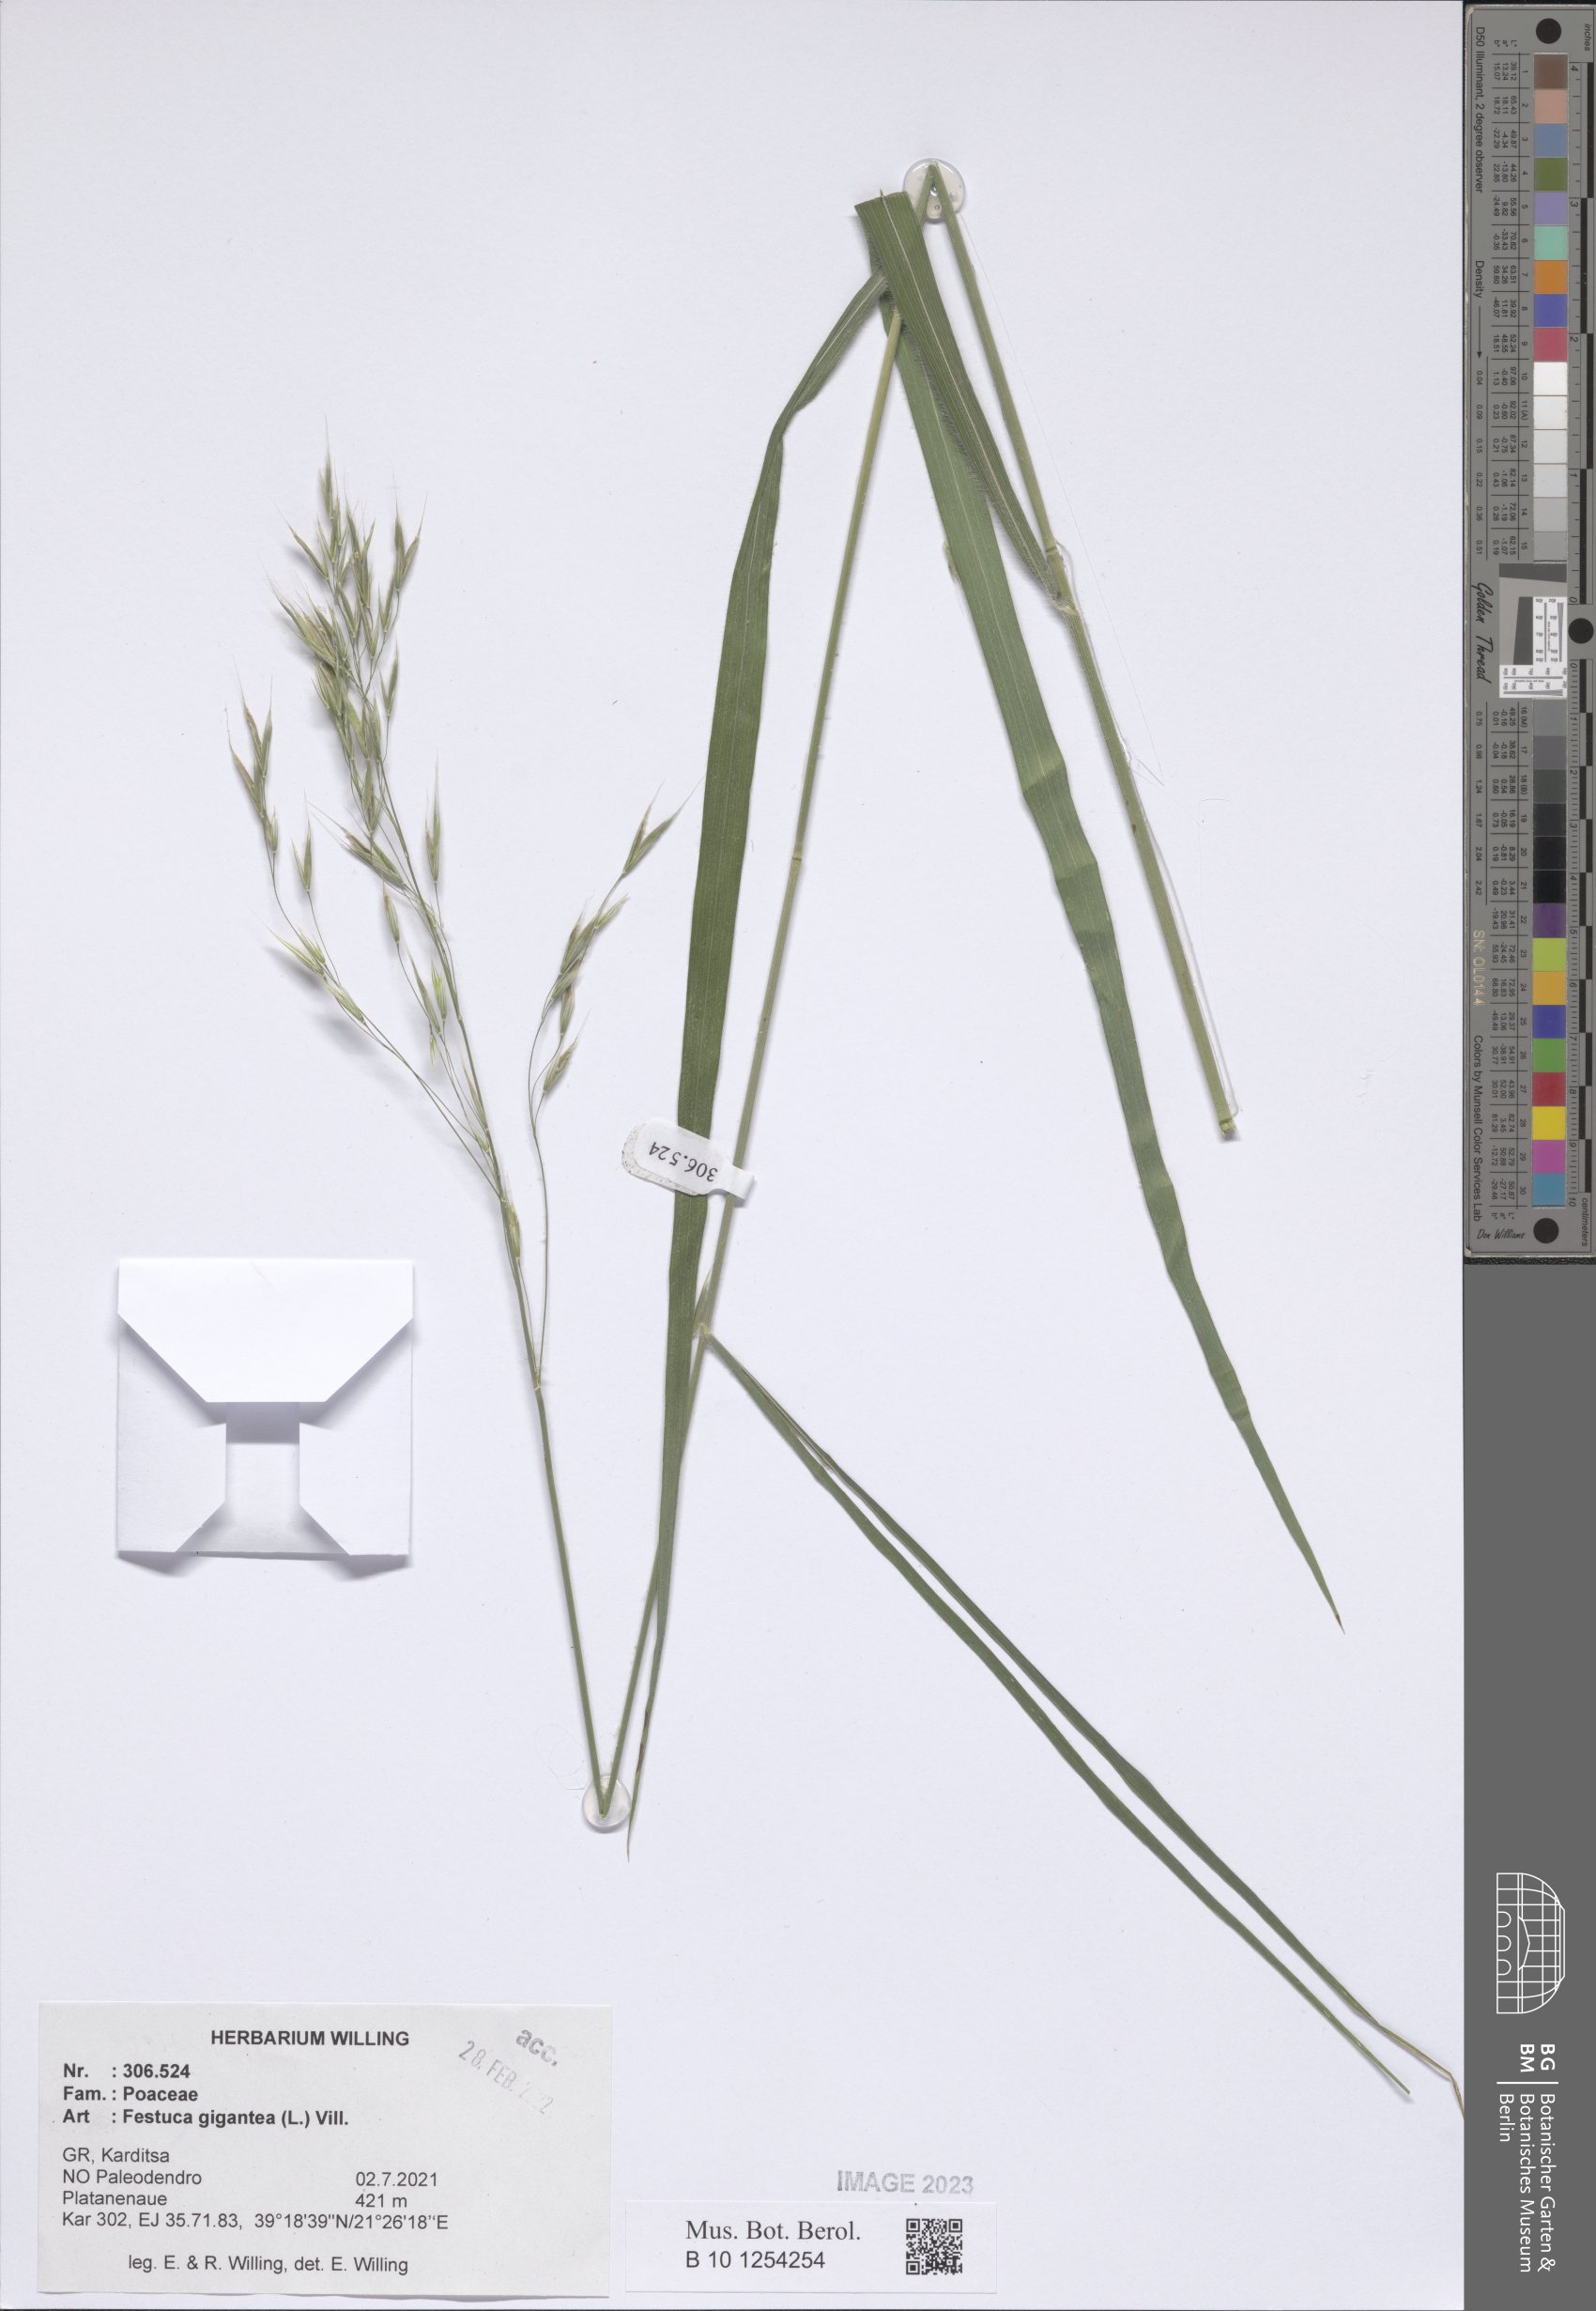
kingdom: Plantae
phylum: Tracheophyta
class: Liliopsida
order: Poales
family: Poaceae
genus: Lolium
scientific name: Lolium giganteum
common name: Giant fescue
